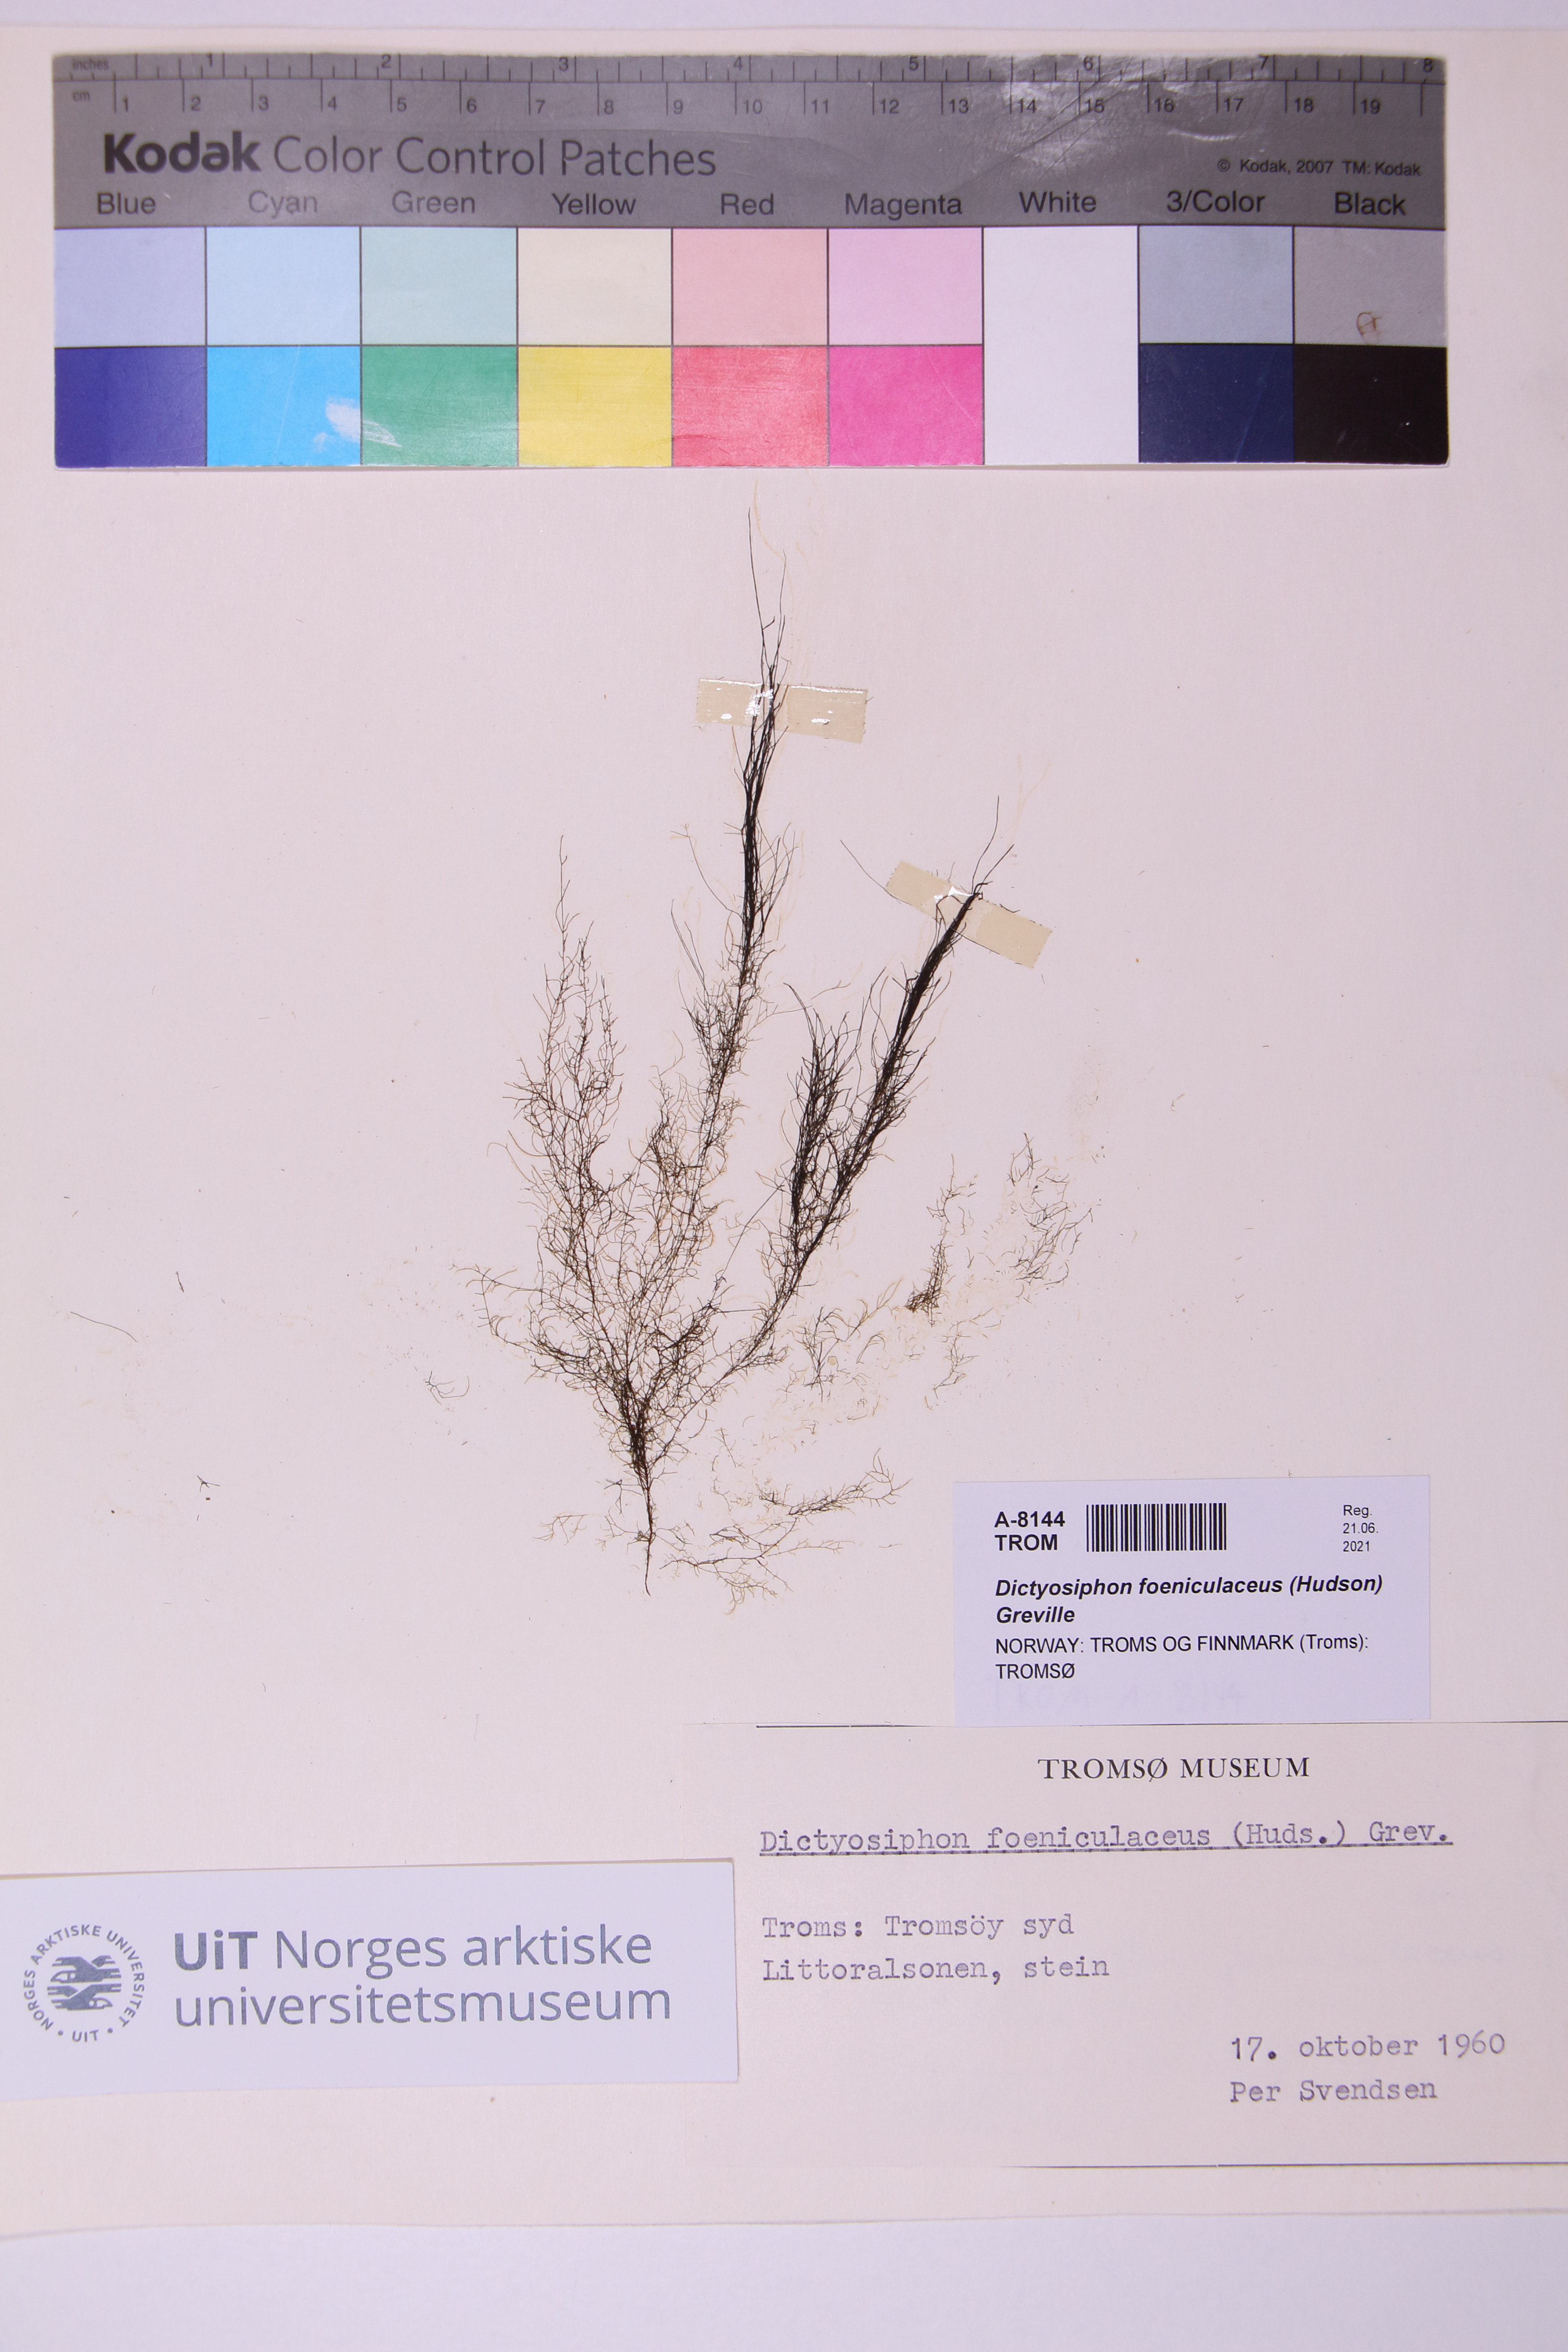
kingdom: Chromista
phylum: Ochrophyta
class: Phaeophyceae
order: Ectocarpales
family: Chordariaceae
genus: Dictyosiphon
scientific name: Dictyosiphon foeniculaceus
